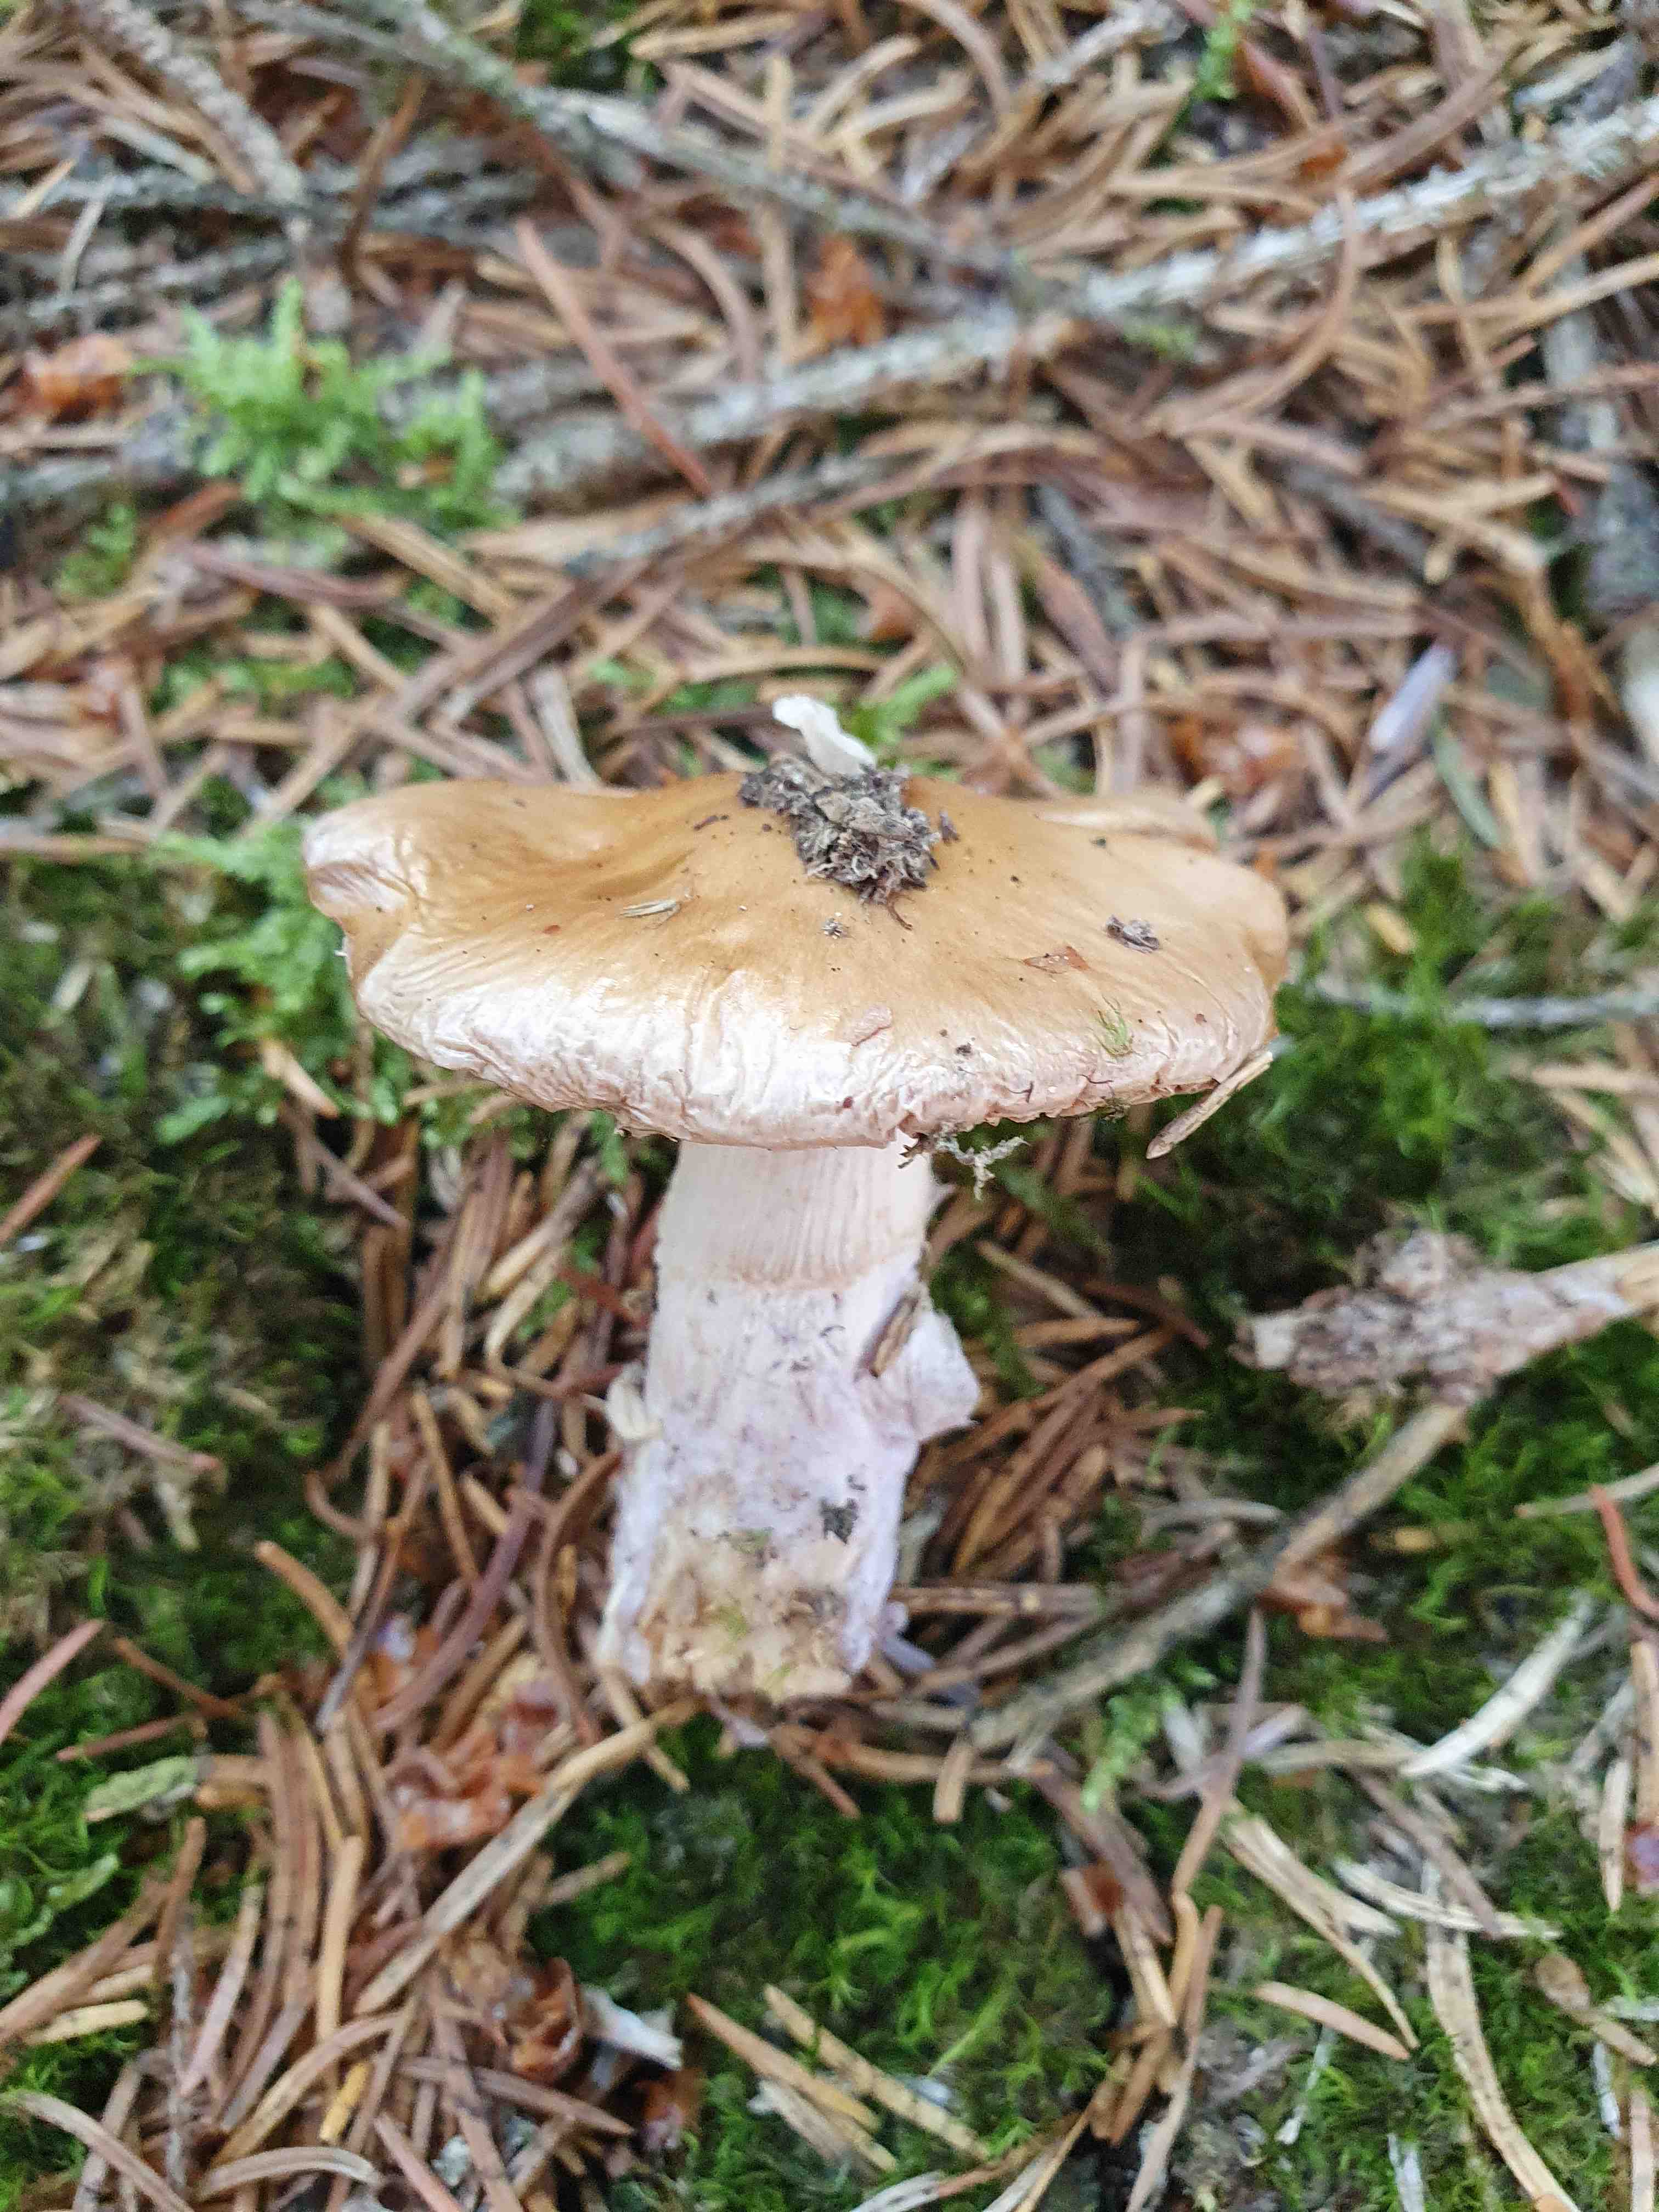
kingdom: Fungi
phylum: Basidiomycota
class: Agaricomycetes
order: Agaricales
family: Cortinariaceae
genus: Cortinarius
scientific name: Cortinarius
